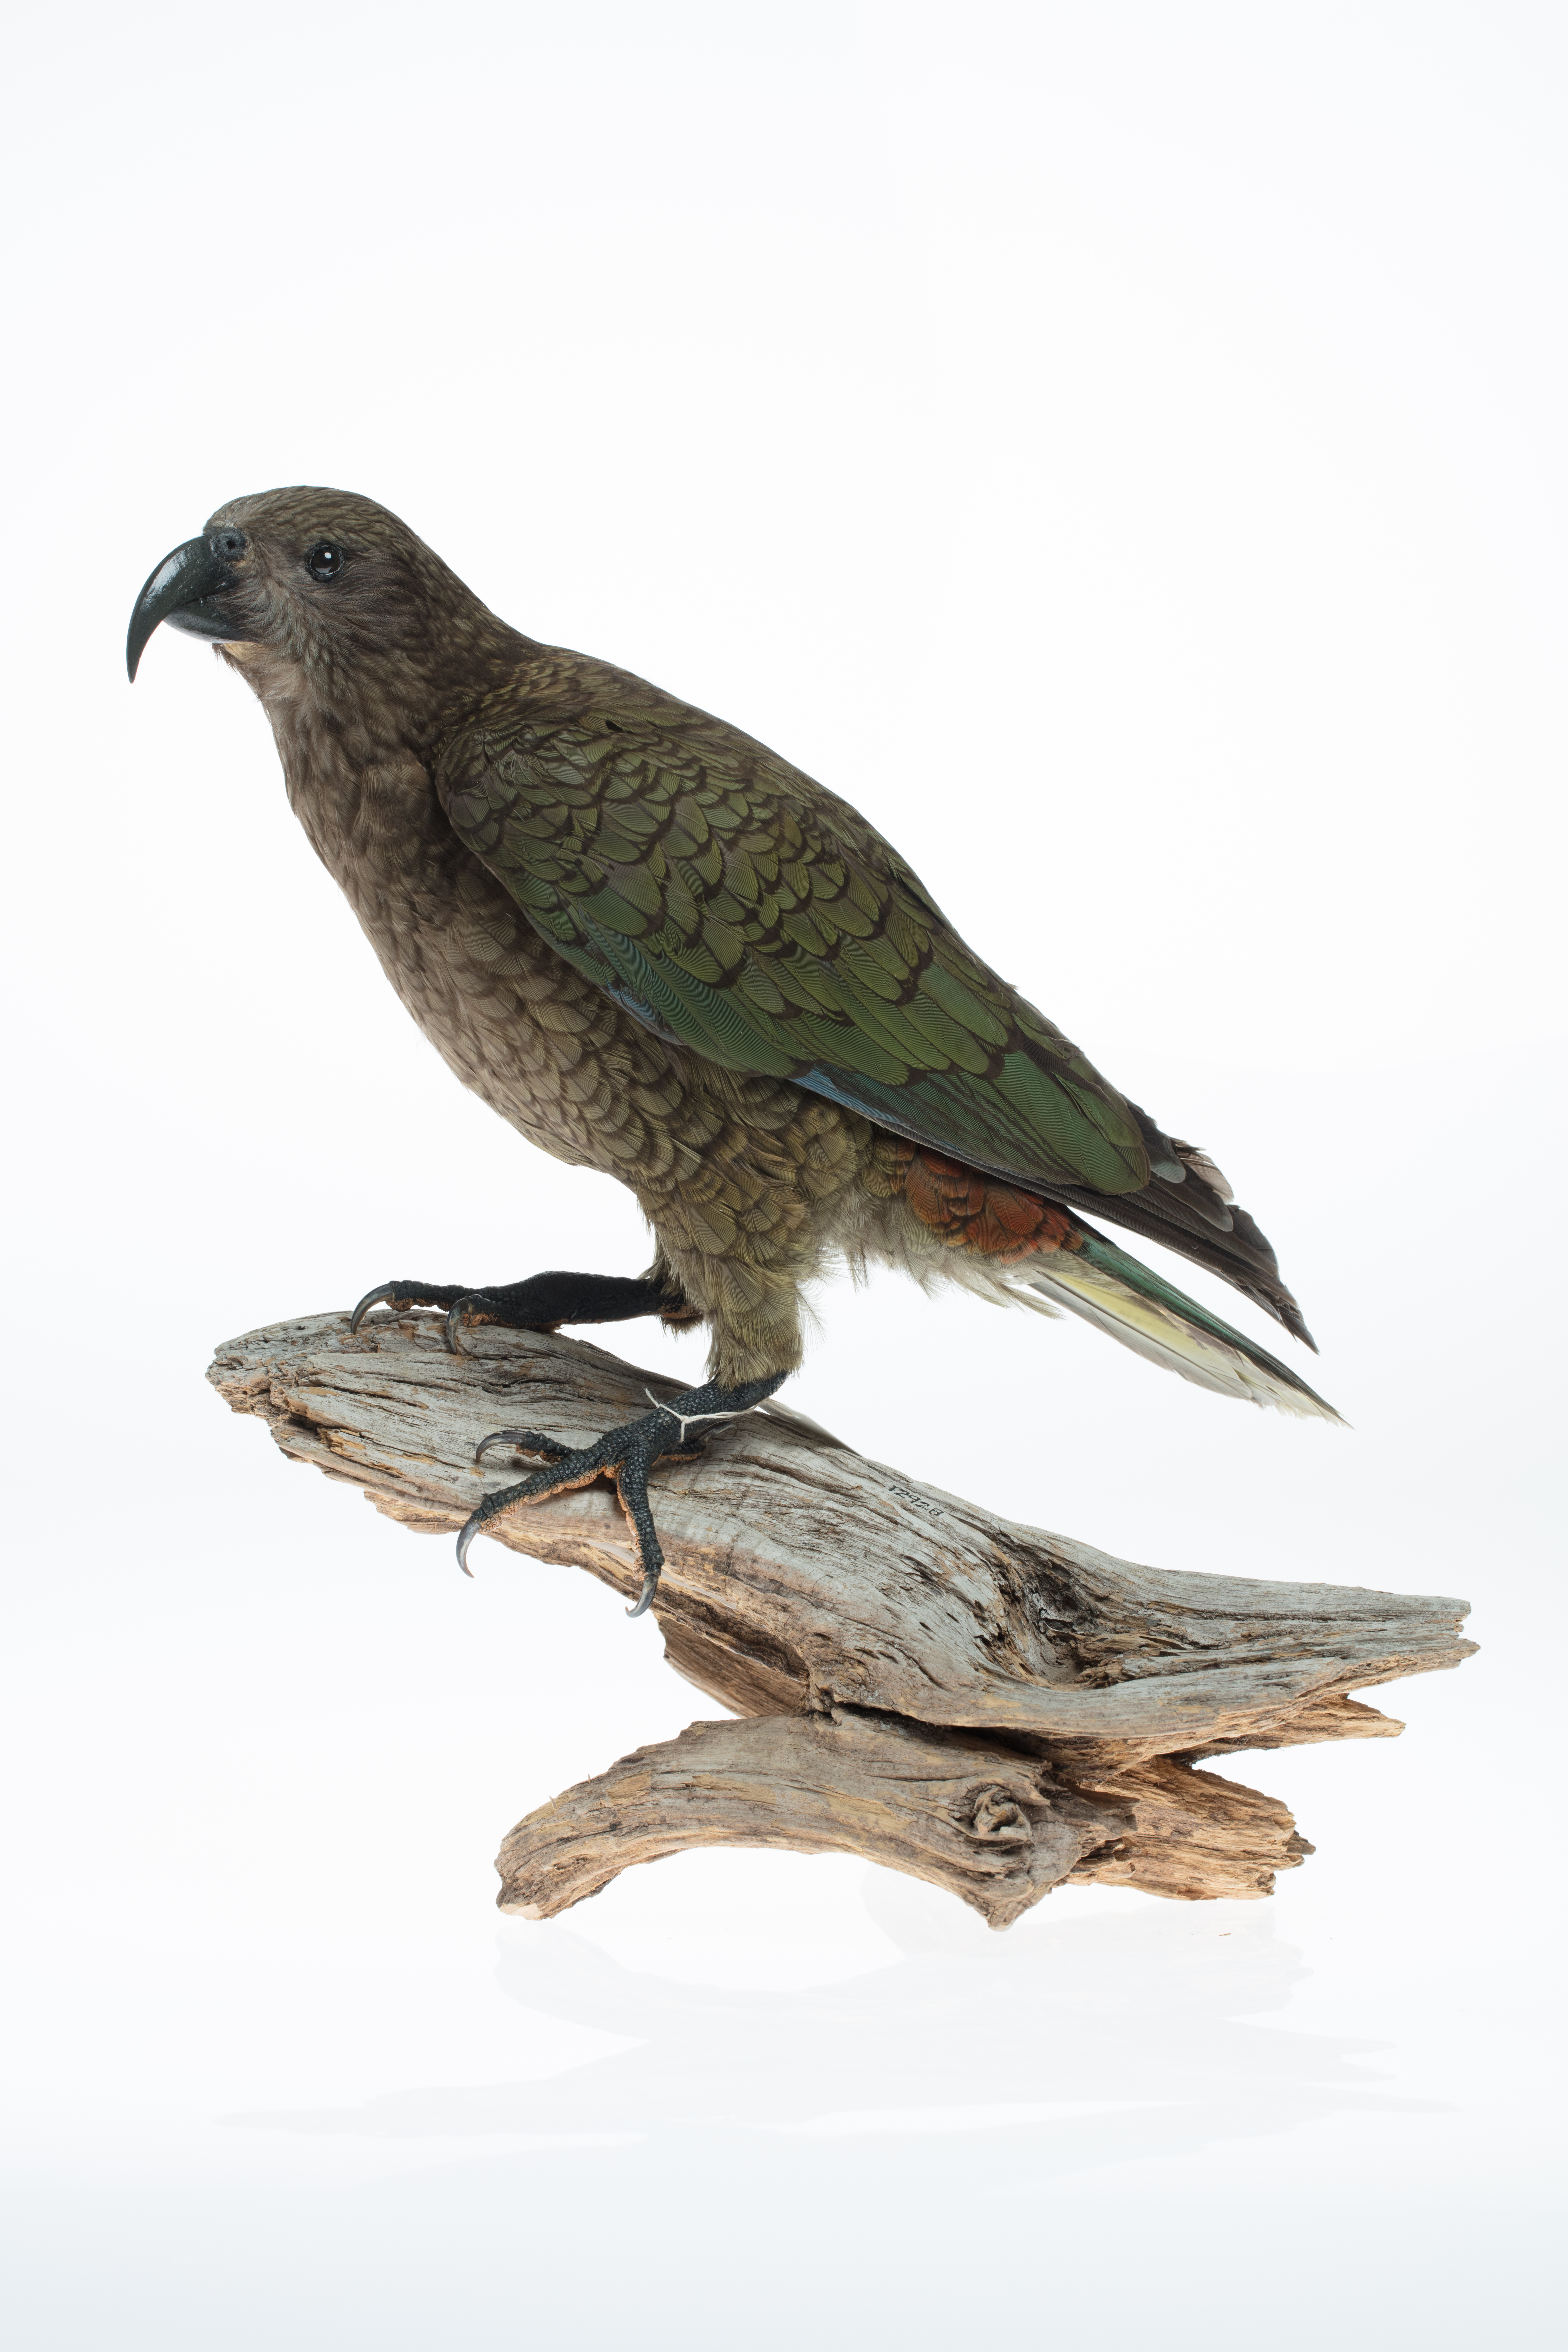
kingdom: Animalia
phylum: Chordata
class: Aves
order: Psittaciformes
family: Psittacidae
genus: Nestor
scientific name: Nestor notabilis
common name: Kea
